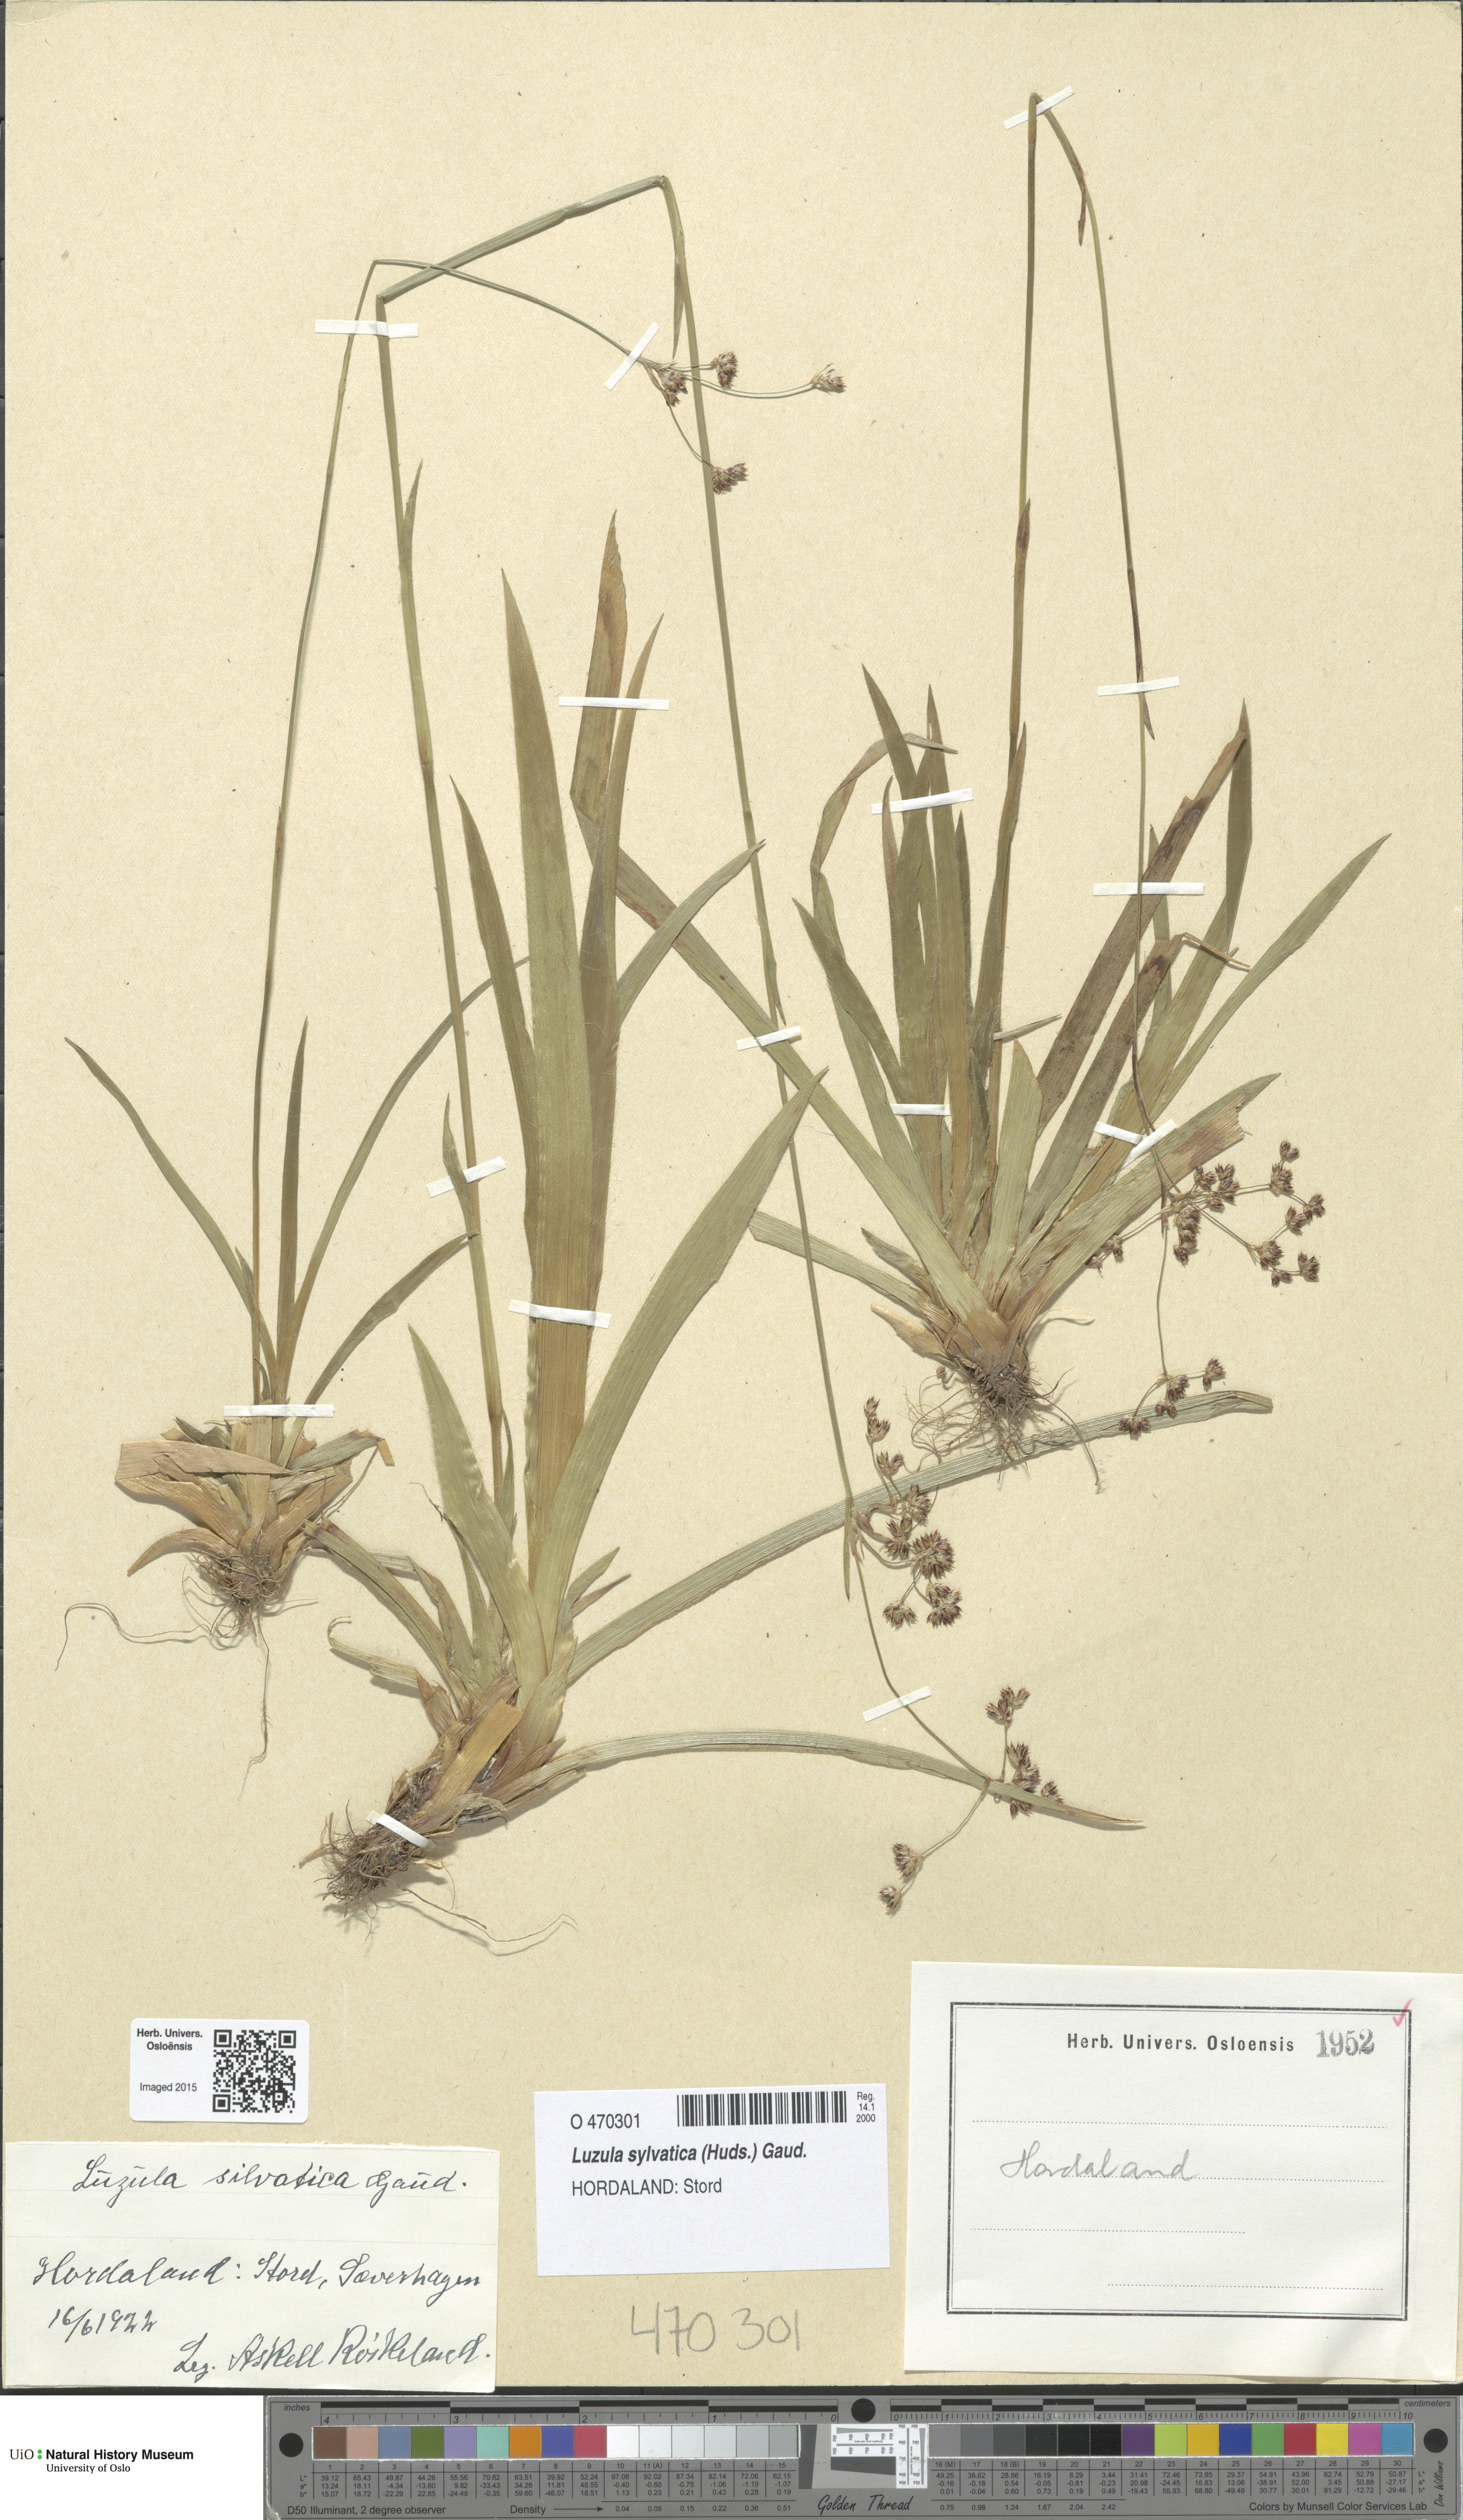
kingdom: Plantae
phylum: Tracheophyta
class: Liliopsida
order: Poales
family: Juncaceae
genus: Luzula
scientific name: Luzula sylvatica
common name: Great wood-rush
